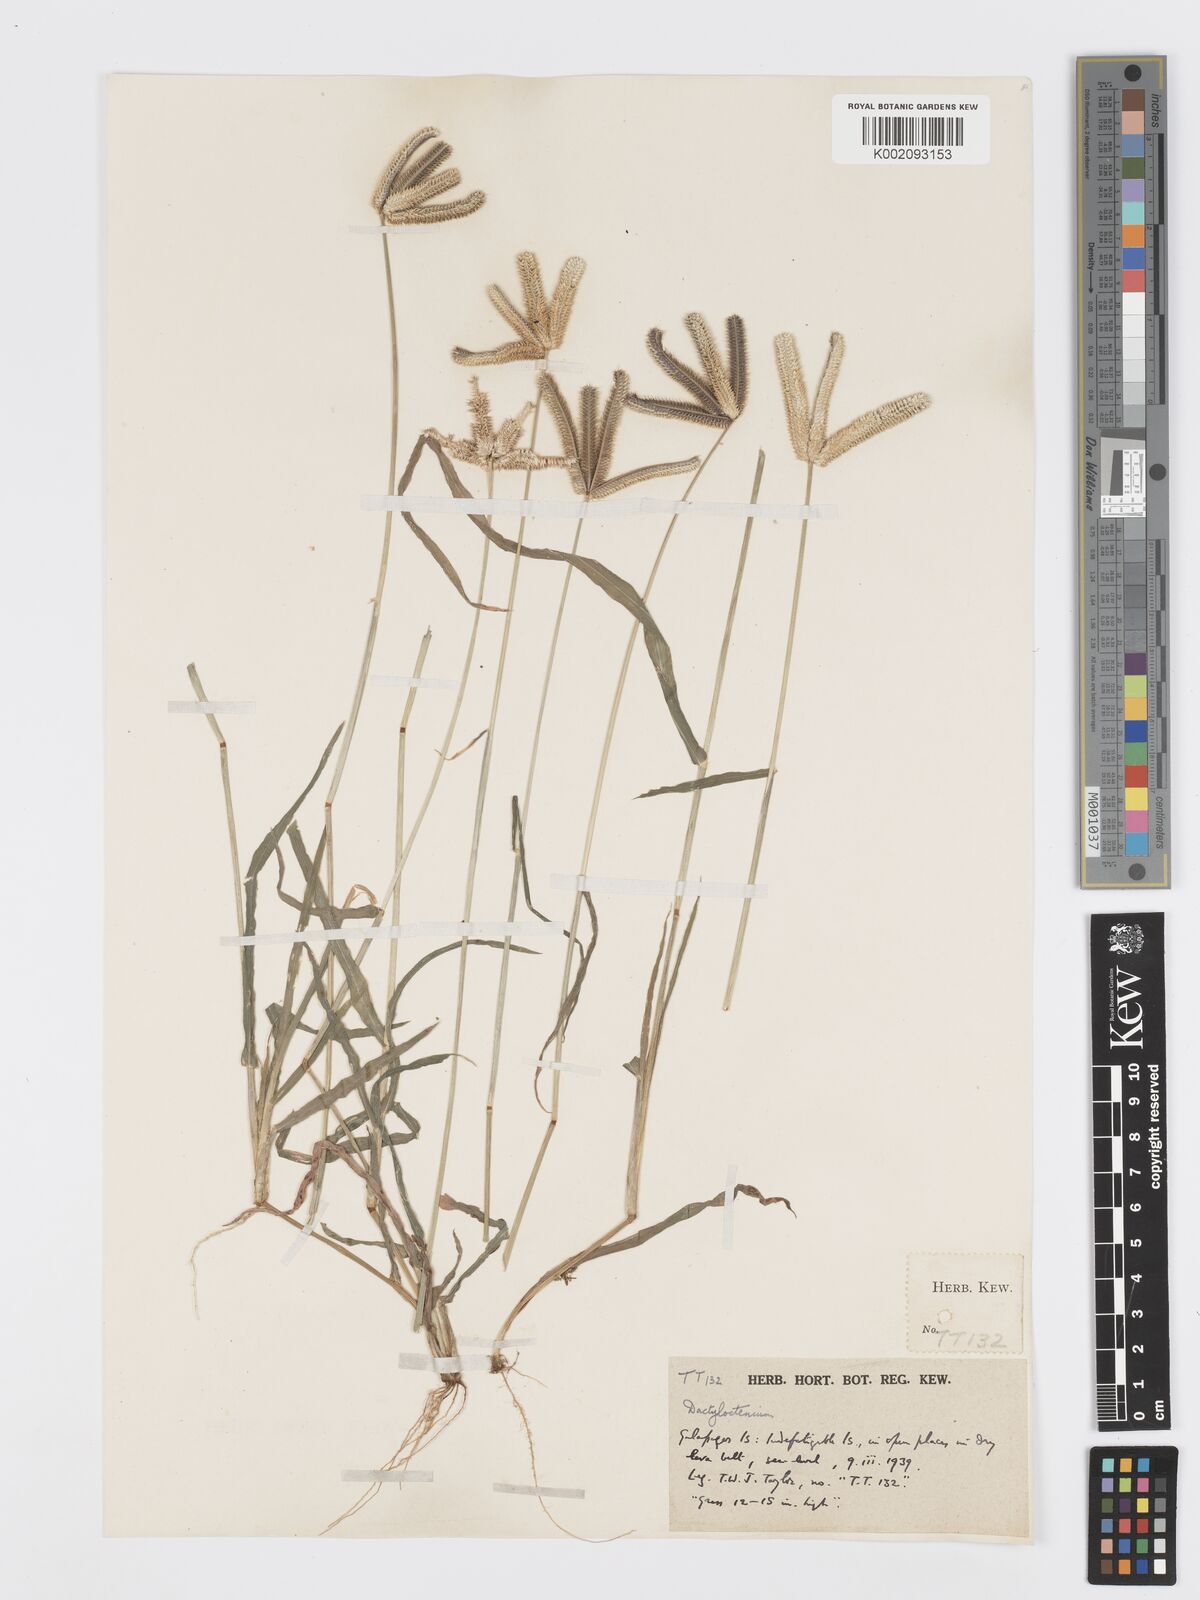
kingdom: Plantae
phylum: Tracheophyta
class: Liliopsida
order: Poales
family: Poaceae
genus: Dactyloctenium
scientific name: Dactyloctenium aegyptium
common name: Egyptian grass
